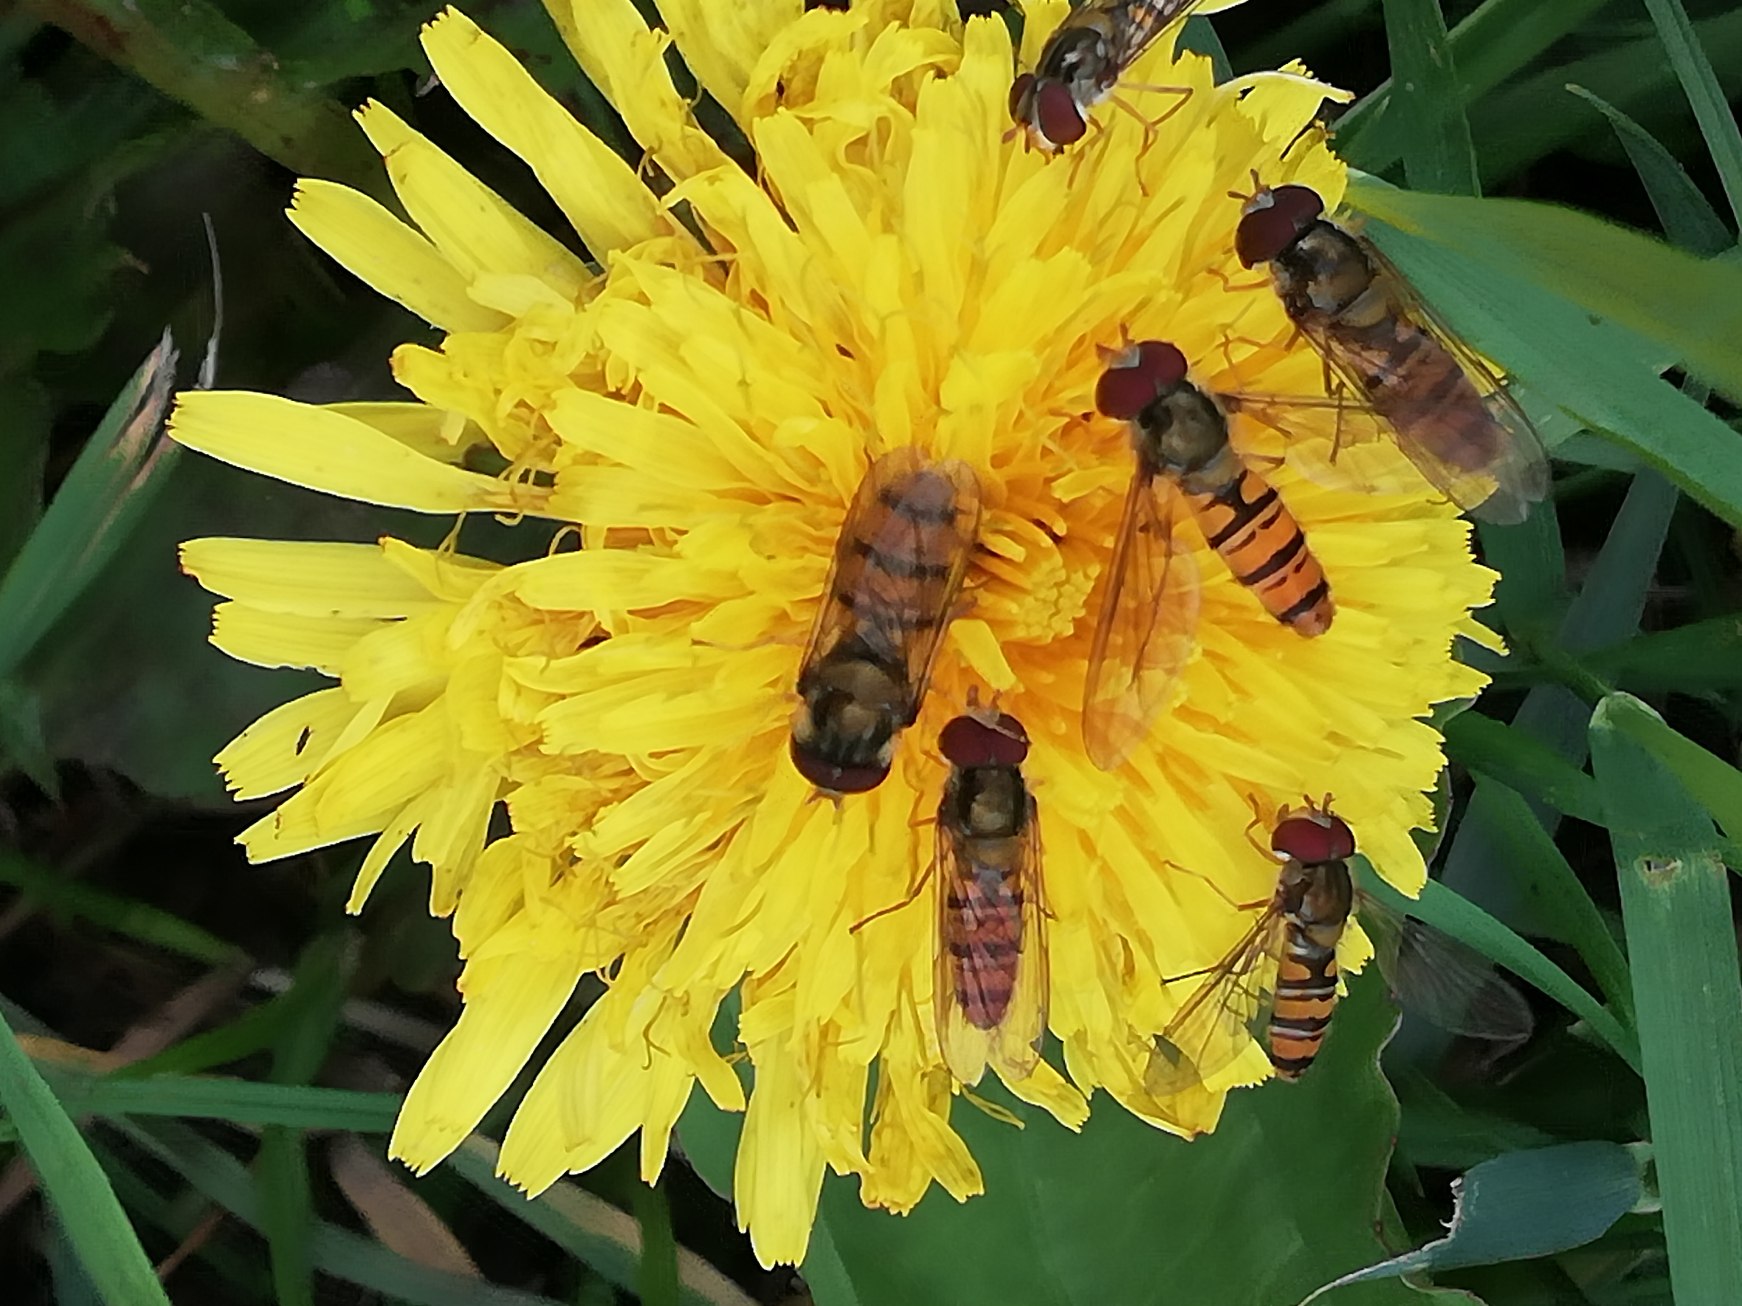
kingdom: Animalia
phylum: Arthropoda
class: Insecta
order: Diptera
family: Syrphidae
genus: Episyrphus
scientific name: Episyrphus balteatus
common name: Dobbeltbåndet svirreflue
